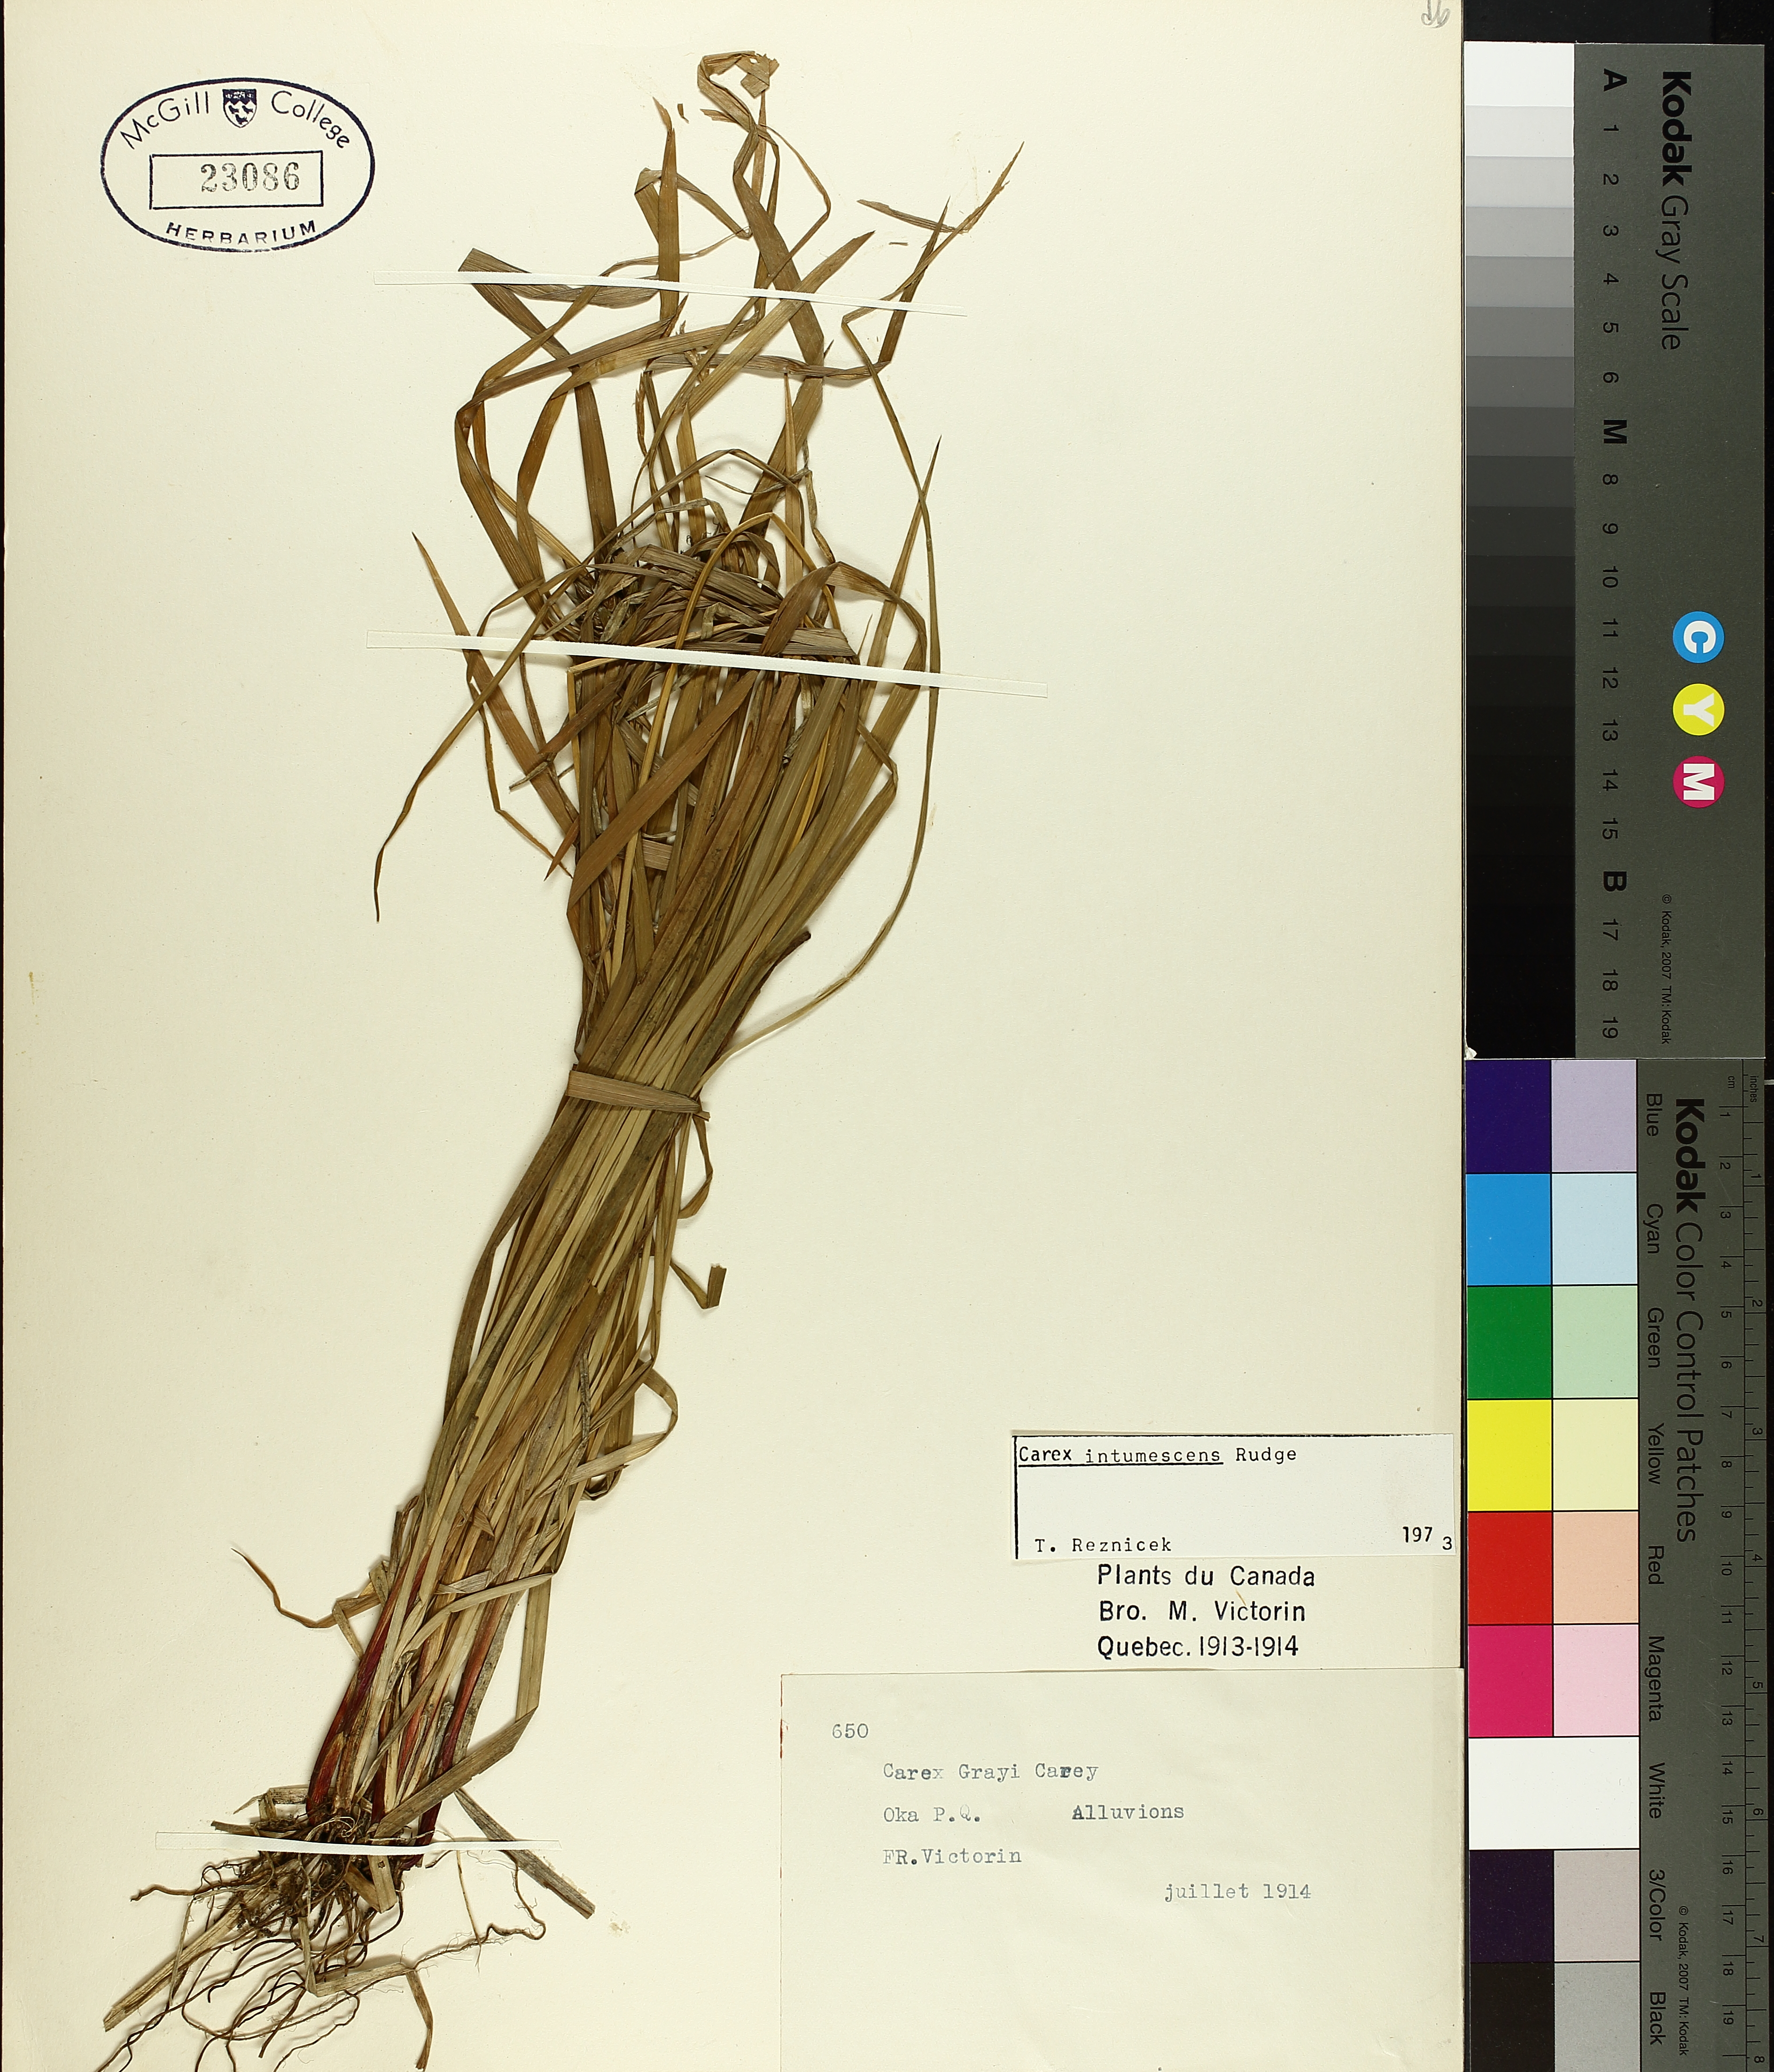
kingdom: Plantae
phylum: Tracheophyta
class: Liliopsida
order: Poales
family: Cyperaceae
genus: Carex
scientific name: Carex intumescens
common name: Greater bladder sedge
